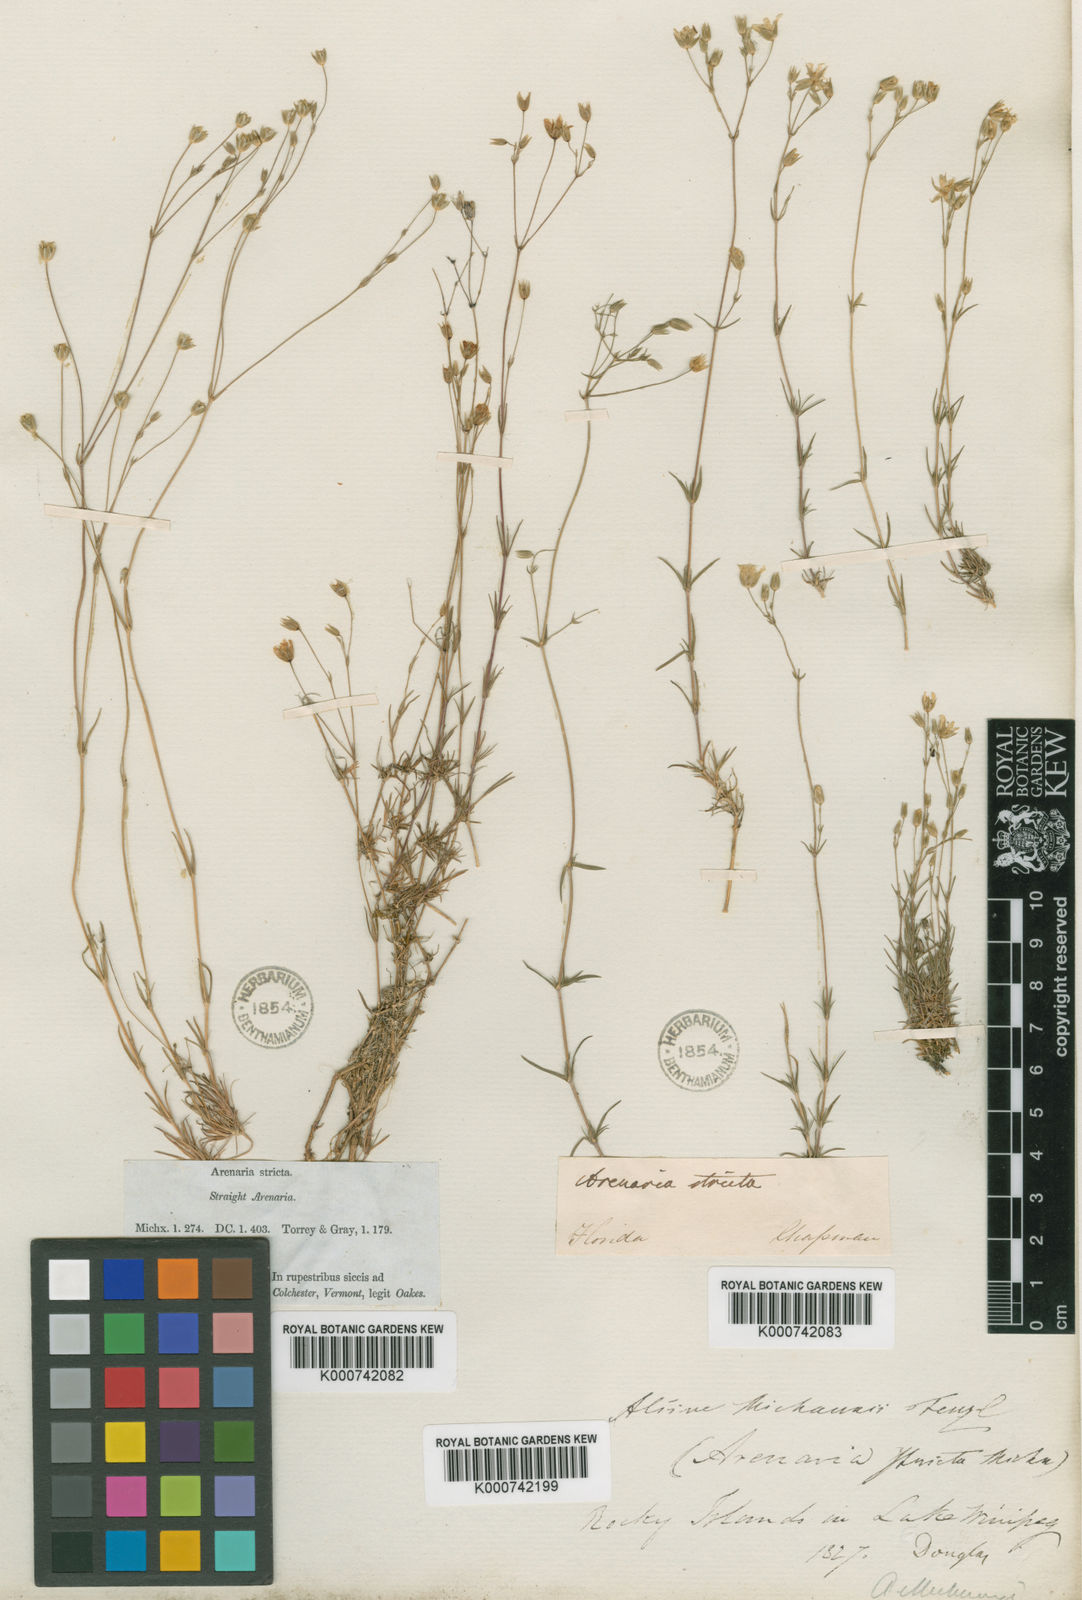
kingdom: Plantae
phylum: Tracheophyta
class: Magnoliopsida
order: Caryophyllales
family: Caryophyllaceae
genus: Mononeuria
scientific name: Mononeuria patula
